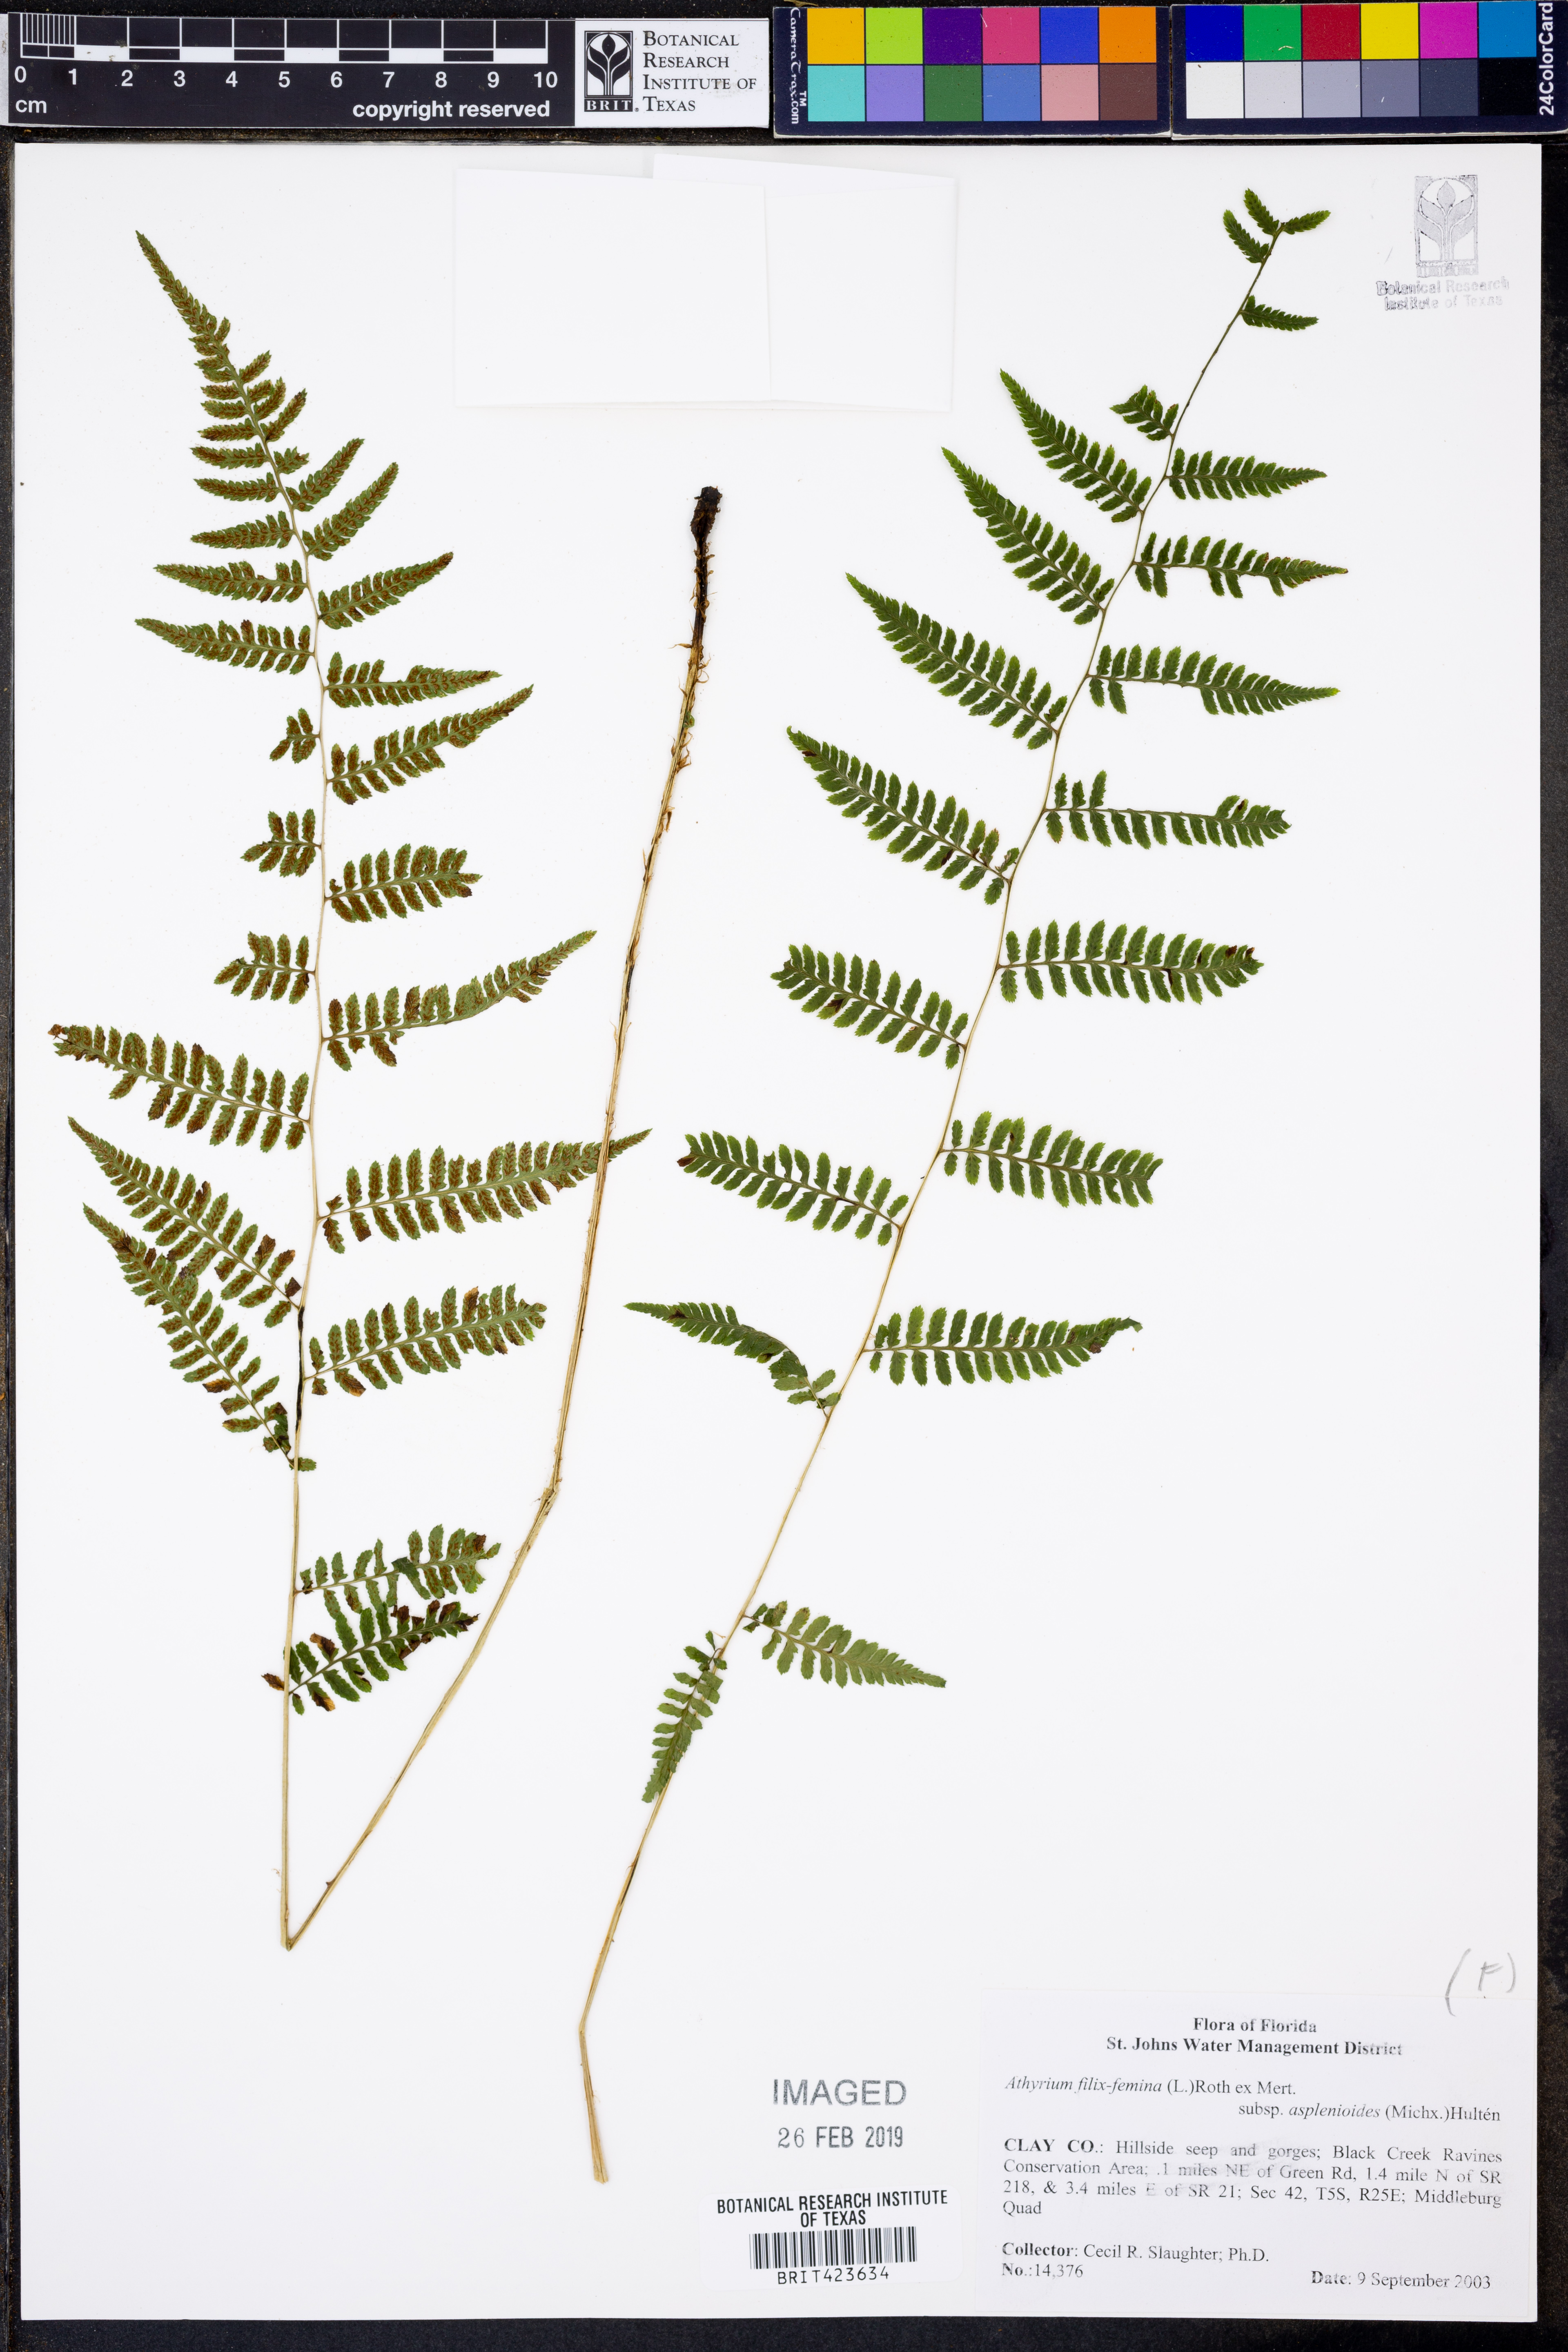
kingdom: Plantae
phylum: Tracheophyta
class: Polypodiopsida
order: Polypodiales
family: Athyriaceae
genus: Athyrium
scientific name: Athyrium asplenioides
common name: Southern lady fern
